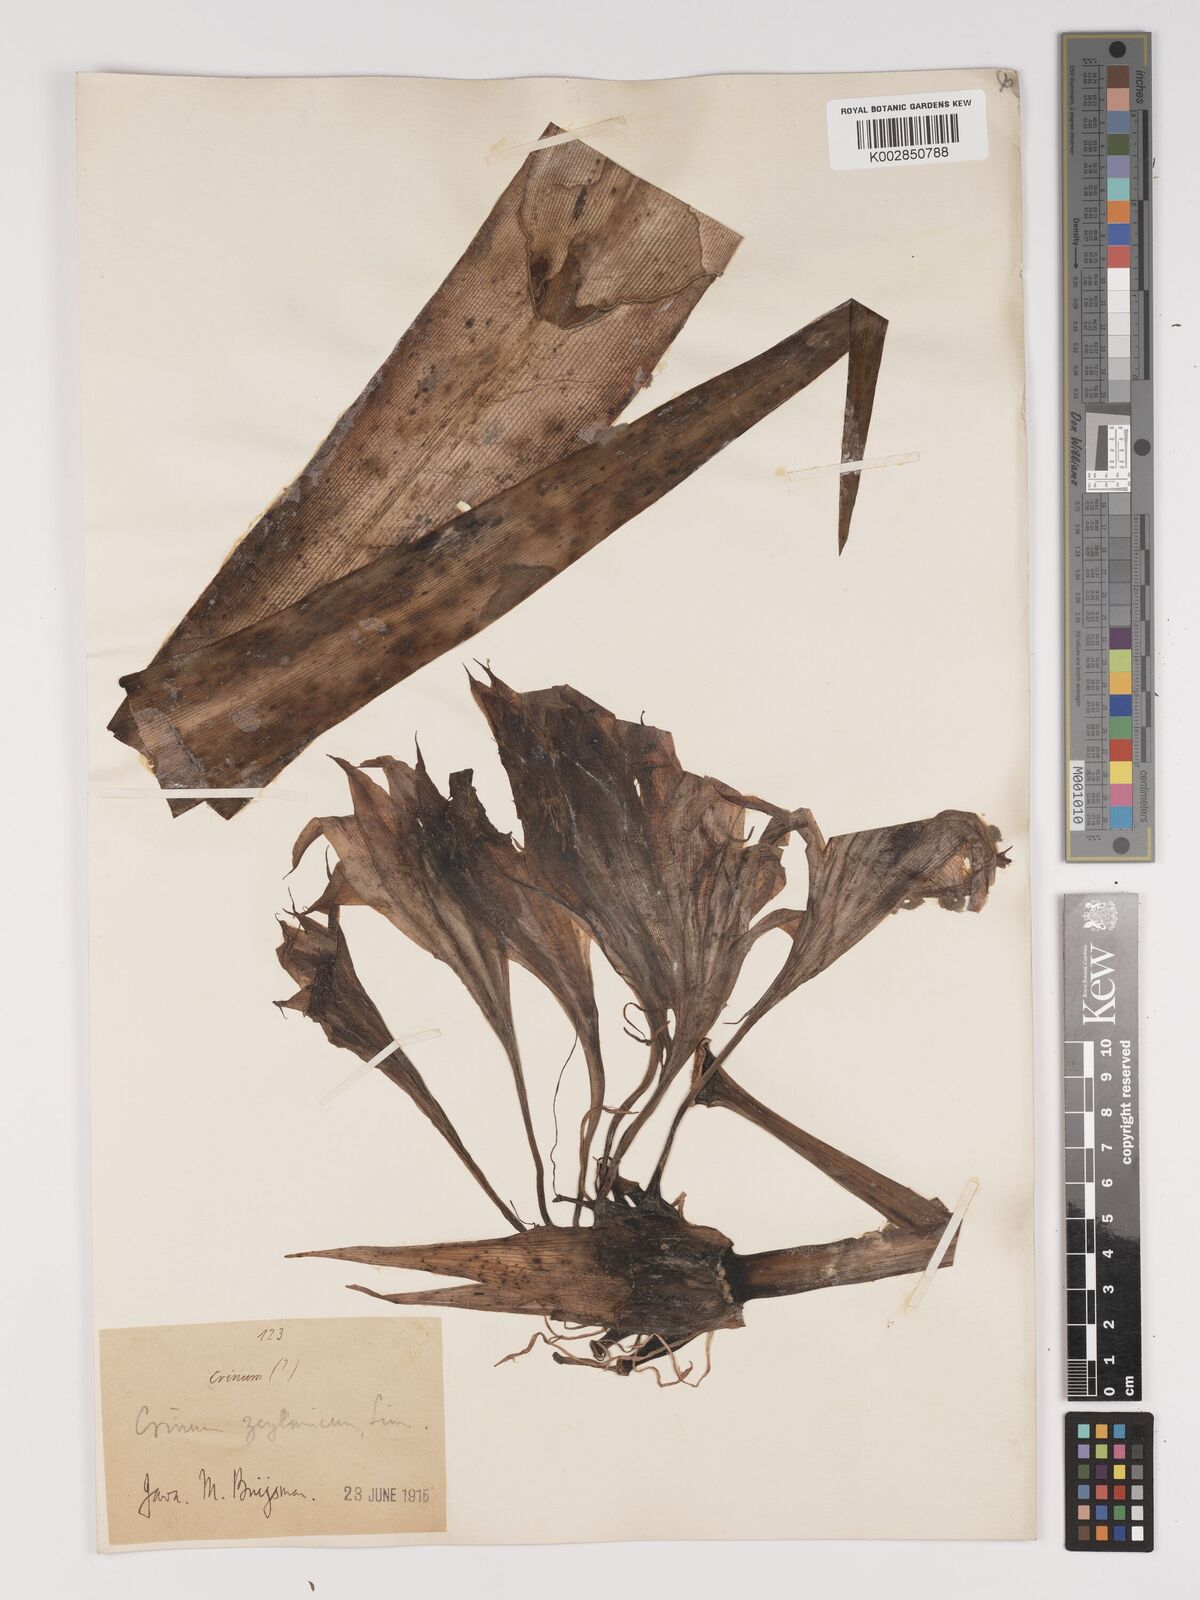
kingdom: Plantae
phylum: Tracheophyta
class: Liliopsida
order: Asparagales
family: Amaryllidaceae
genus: Crinum
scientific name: Crinum latifolium
